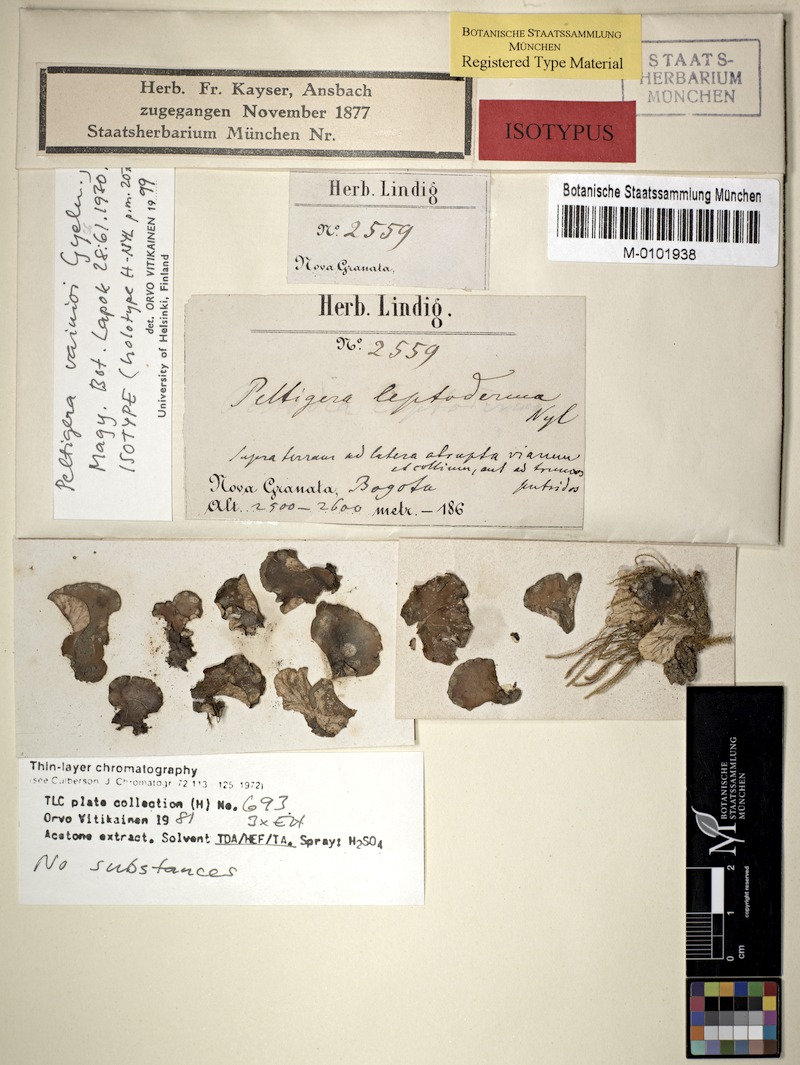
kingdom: Fungi
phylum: Ascomycota
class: Lecanoromycetes
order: Peltigerales
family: Peltigeraceae
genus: Peltigera
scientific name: Peltigera vainioi
